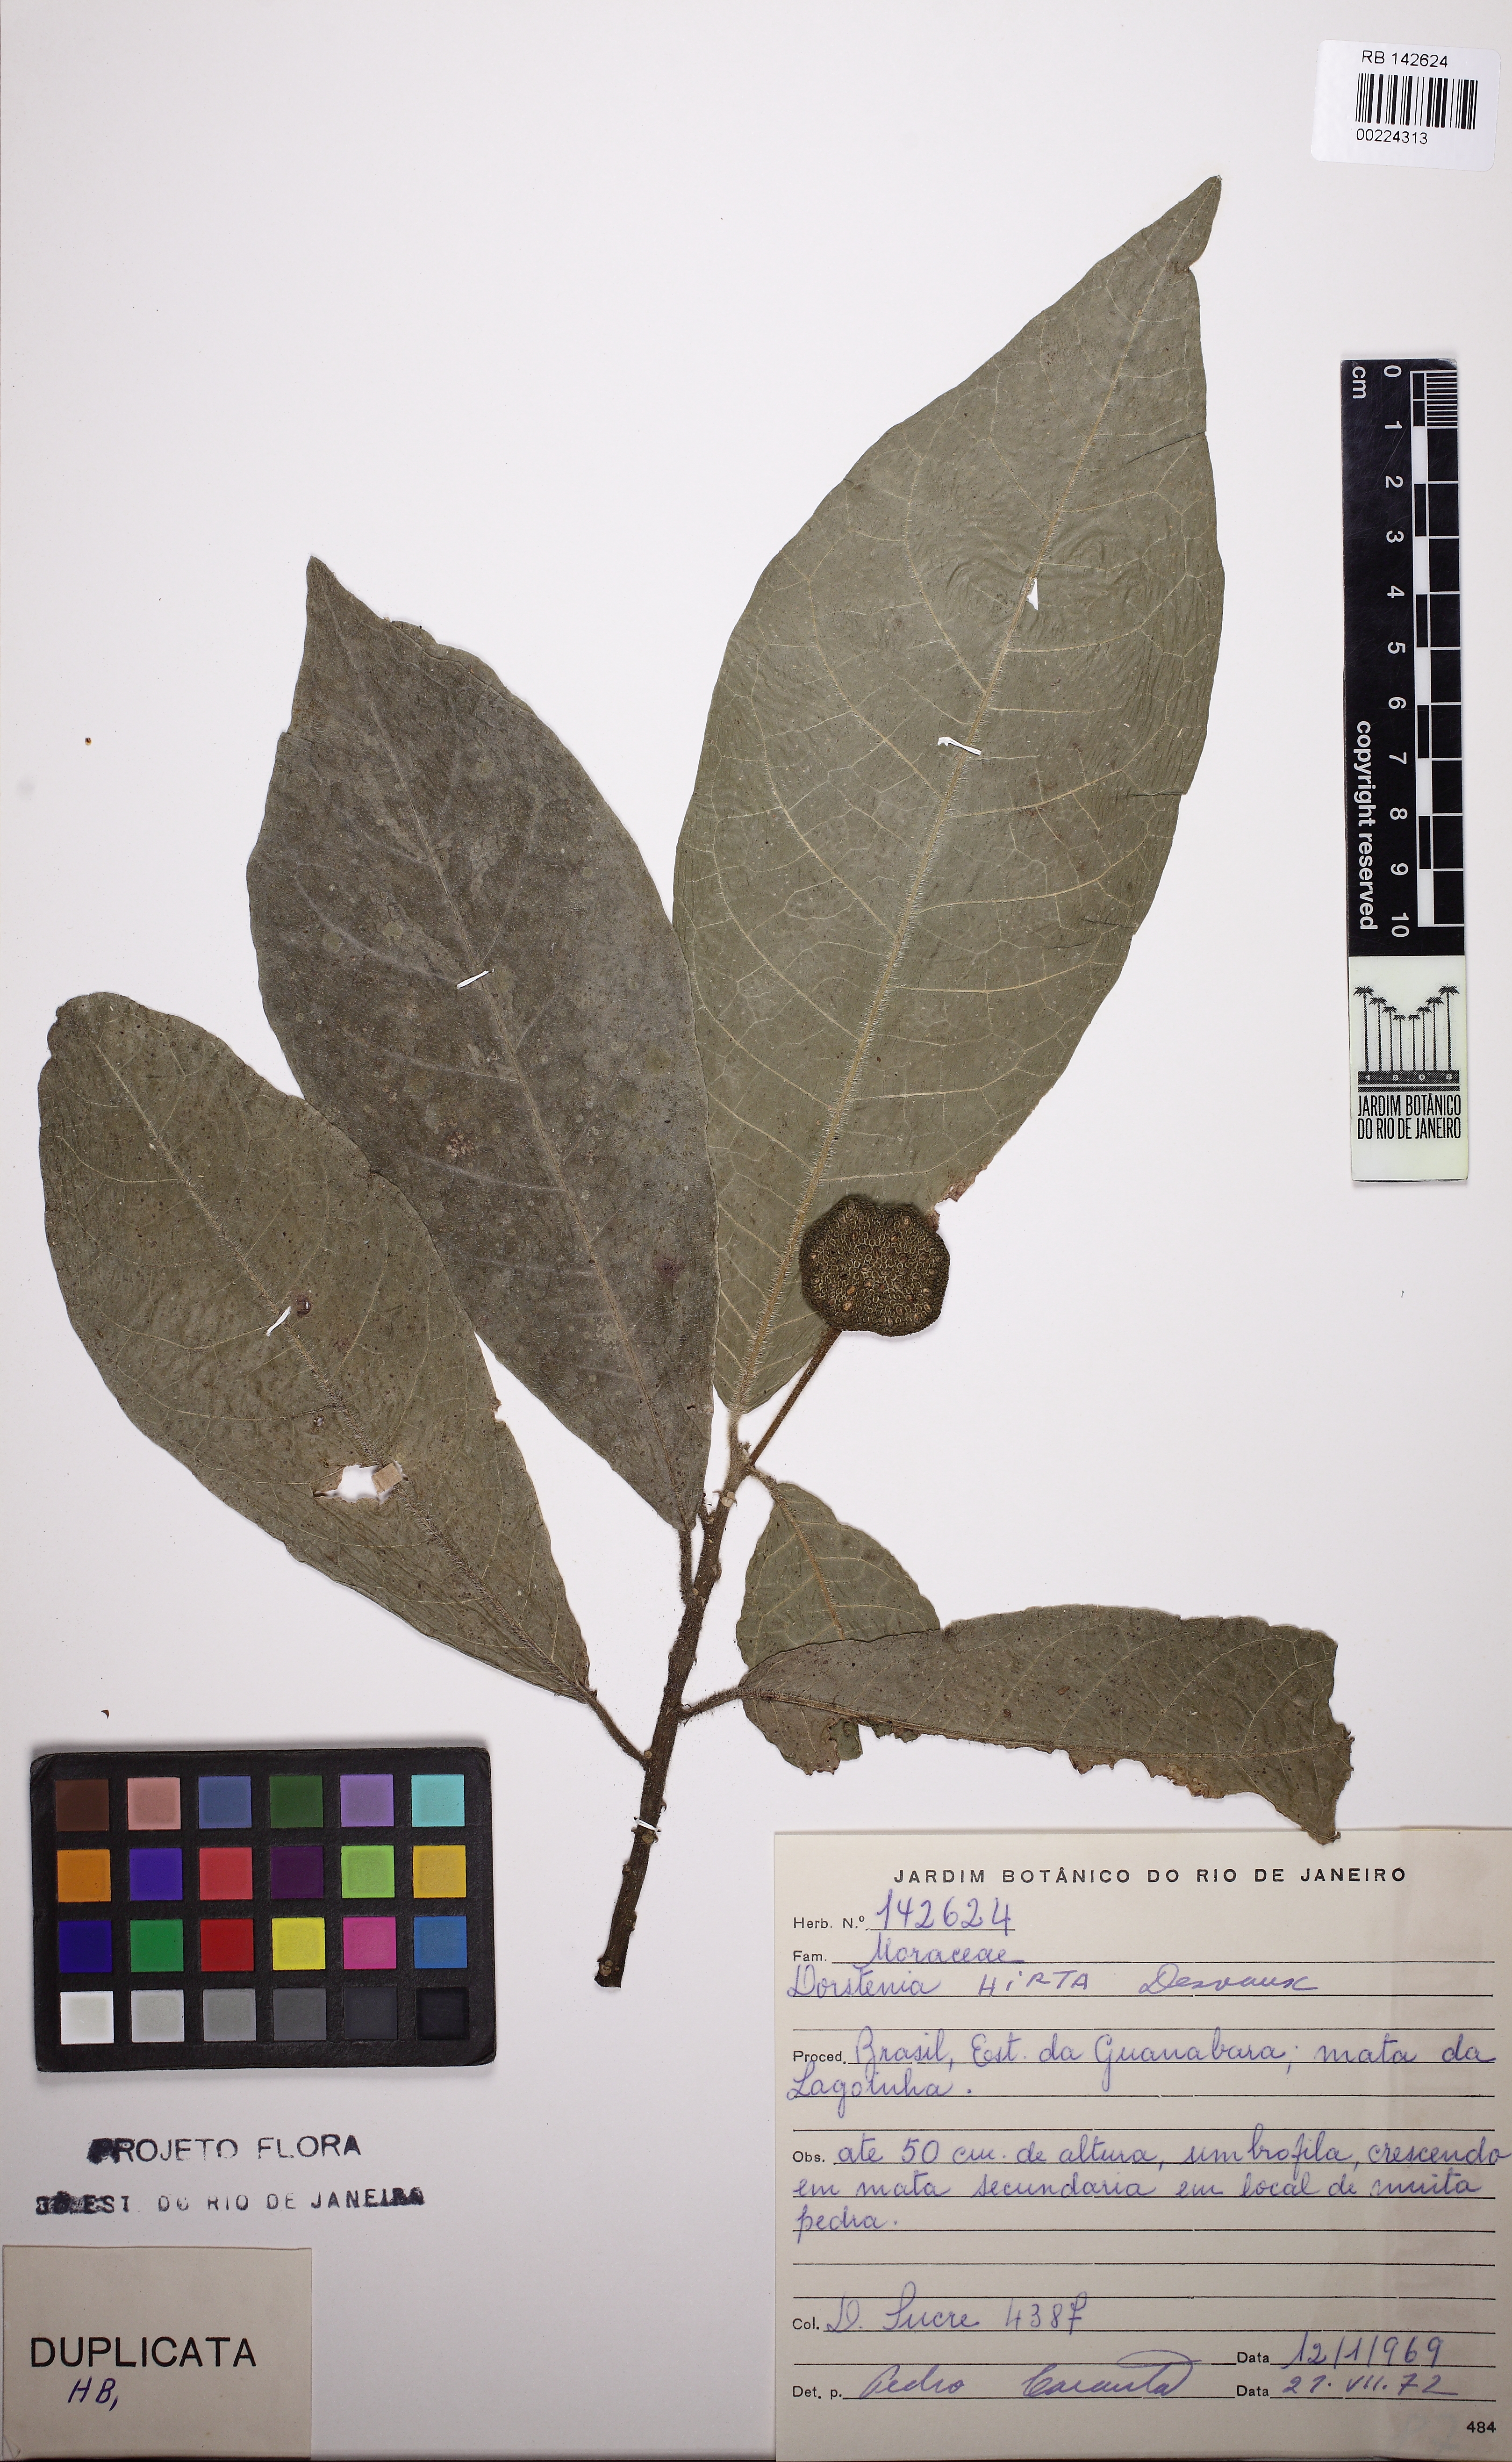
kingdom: Plantae
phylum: Tracheophyta
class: Magnoliopsida
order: Rosales
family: Moraceae
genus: Dorstenia
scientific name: Dorstenia hirta
